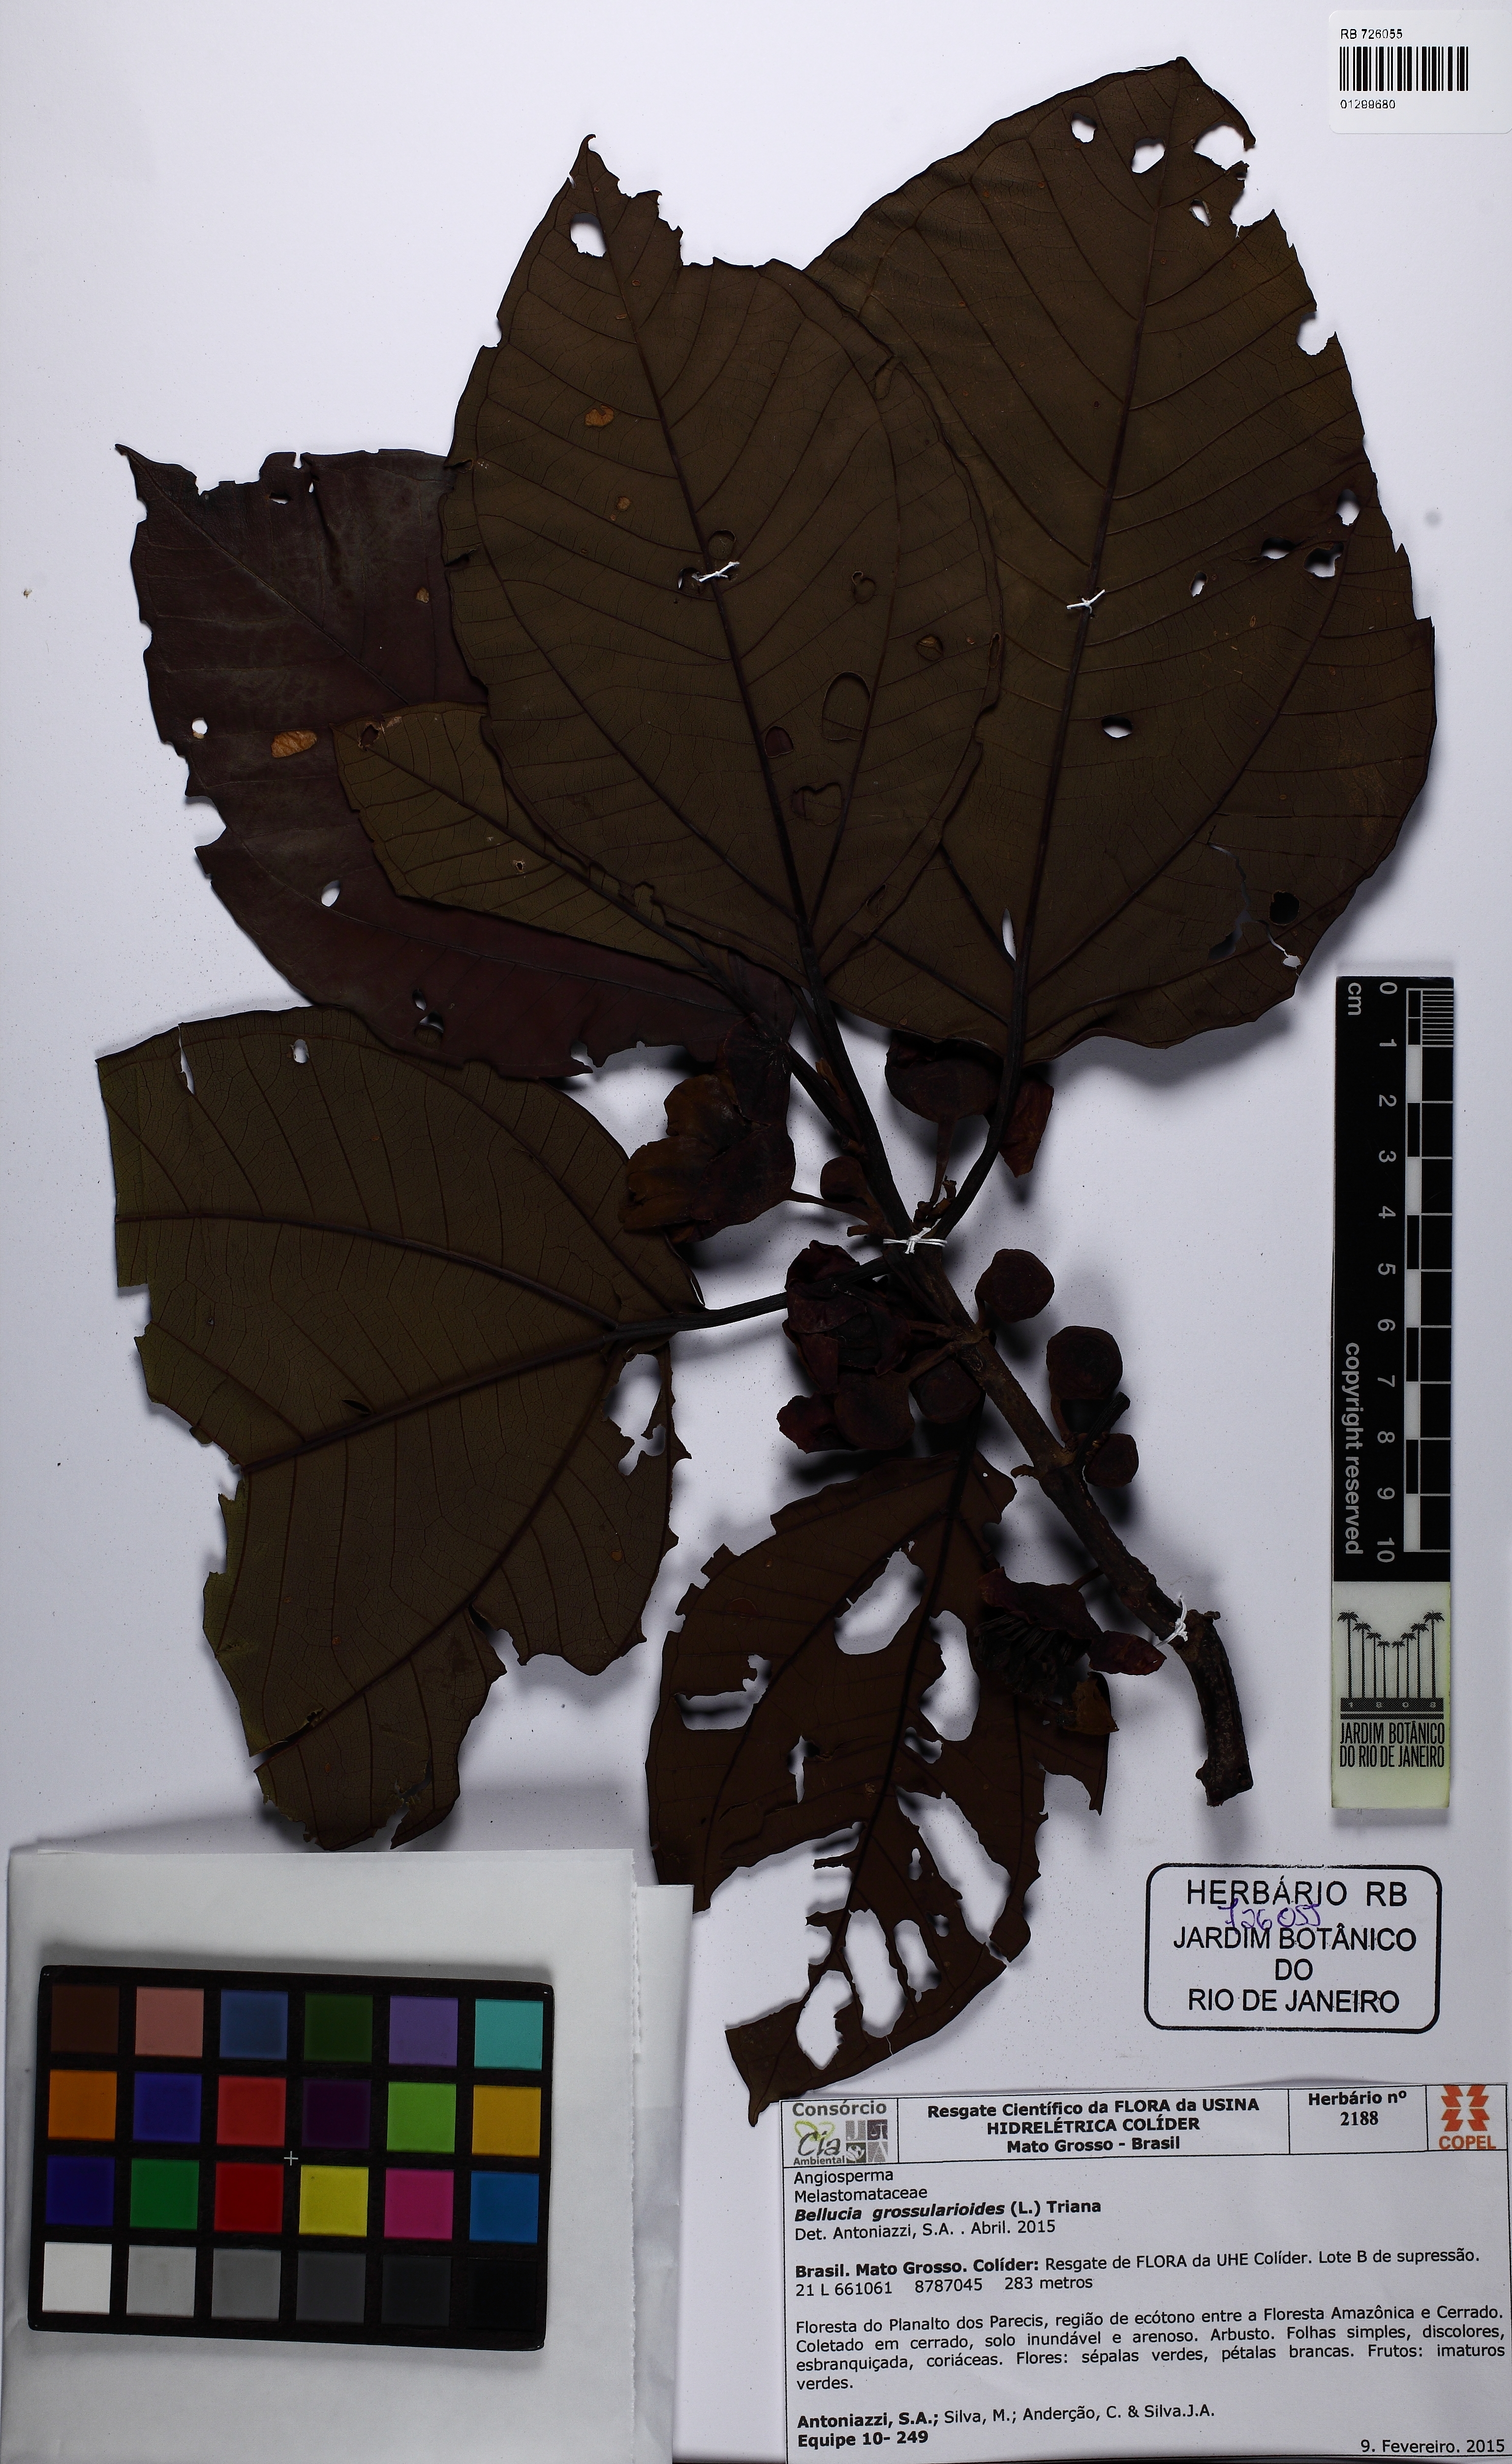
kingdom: Plantae
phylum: Tracheophyta
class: Magnoliopsida
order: Myrtales
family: Melastomataceae
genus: Bellucia
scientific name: Bellucia grossularioides
